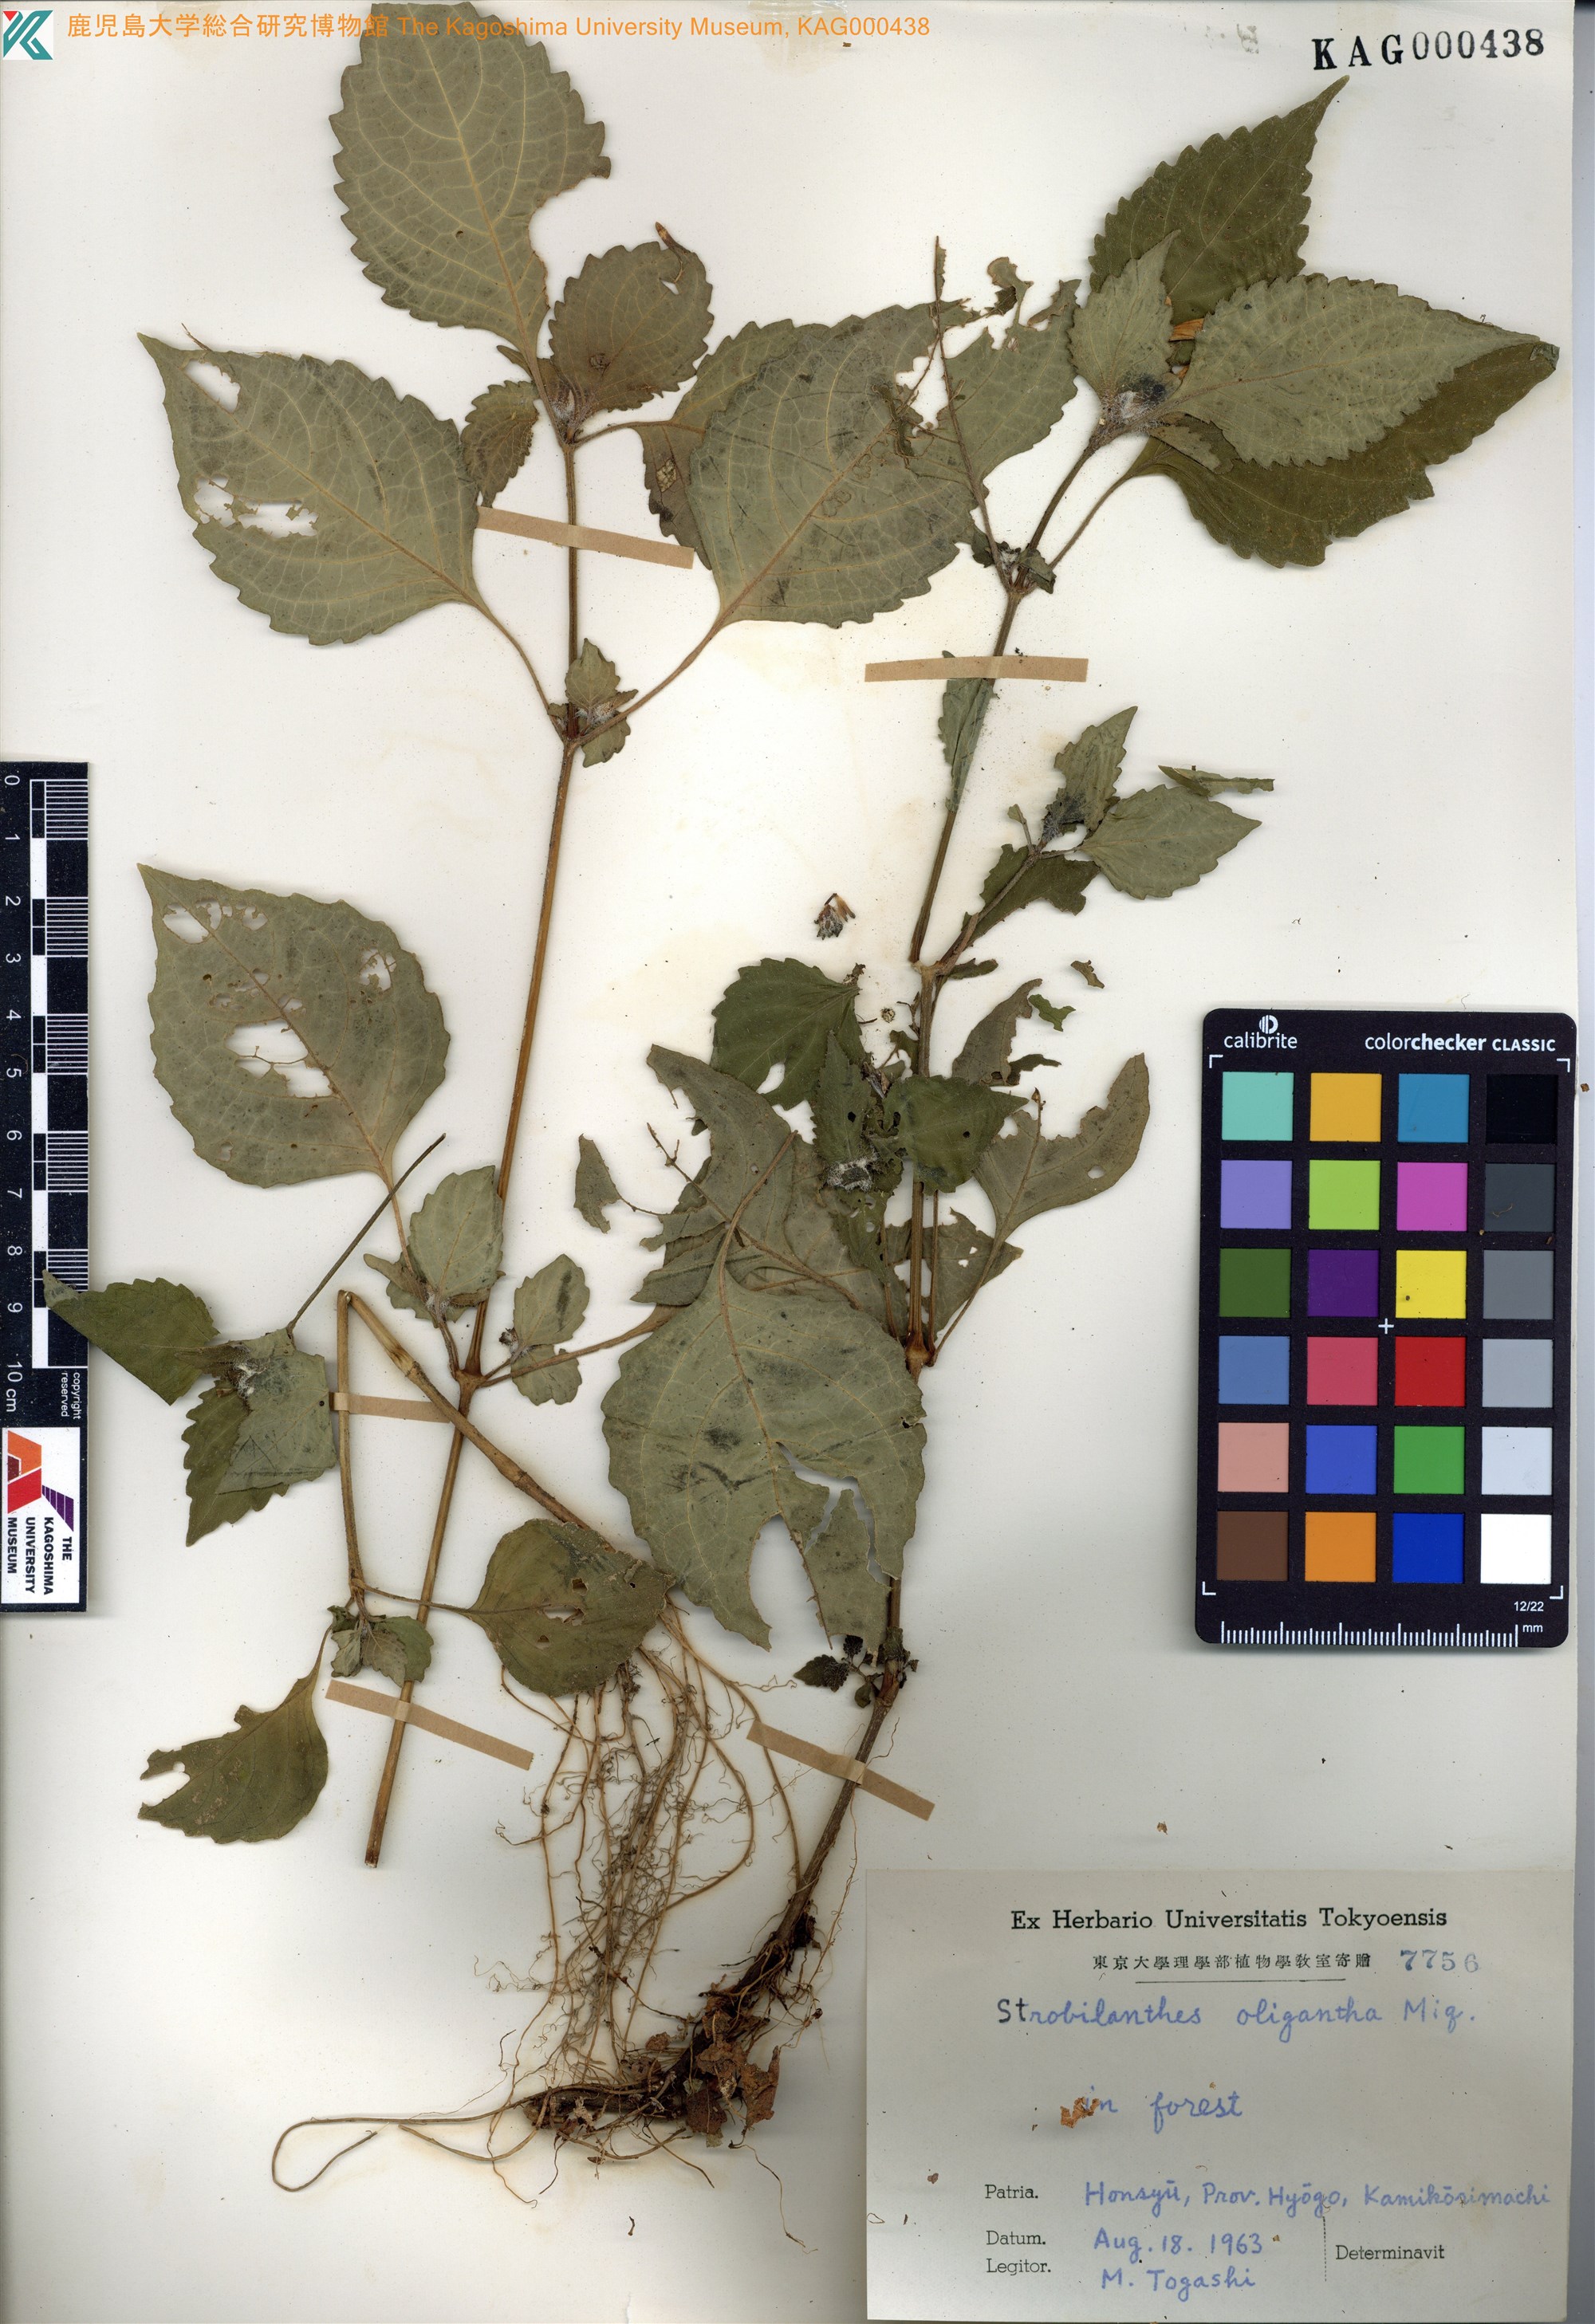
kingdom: Plantae
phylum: Tracheophyta
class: Magnoliopsida
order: Lamiales
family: Acanthaceae
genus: Strobilanthes
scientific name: Strobilanthes oligantha
